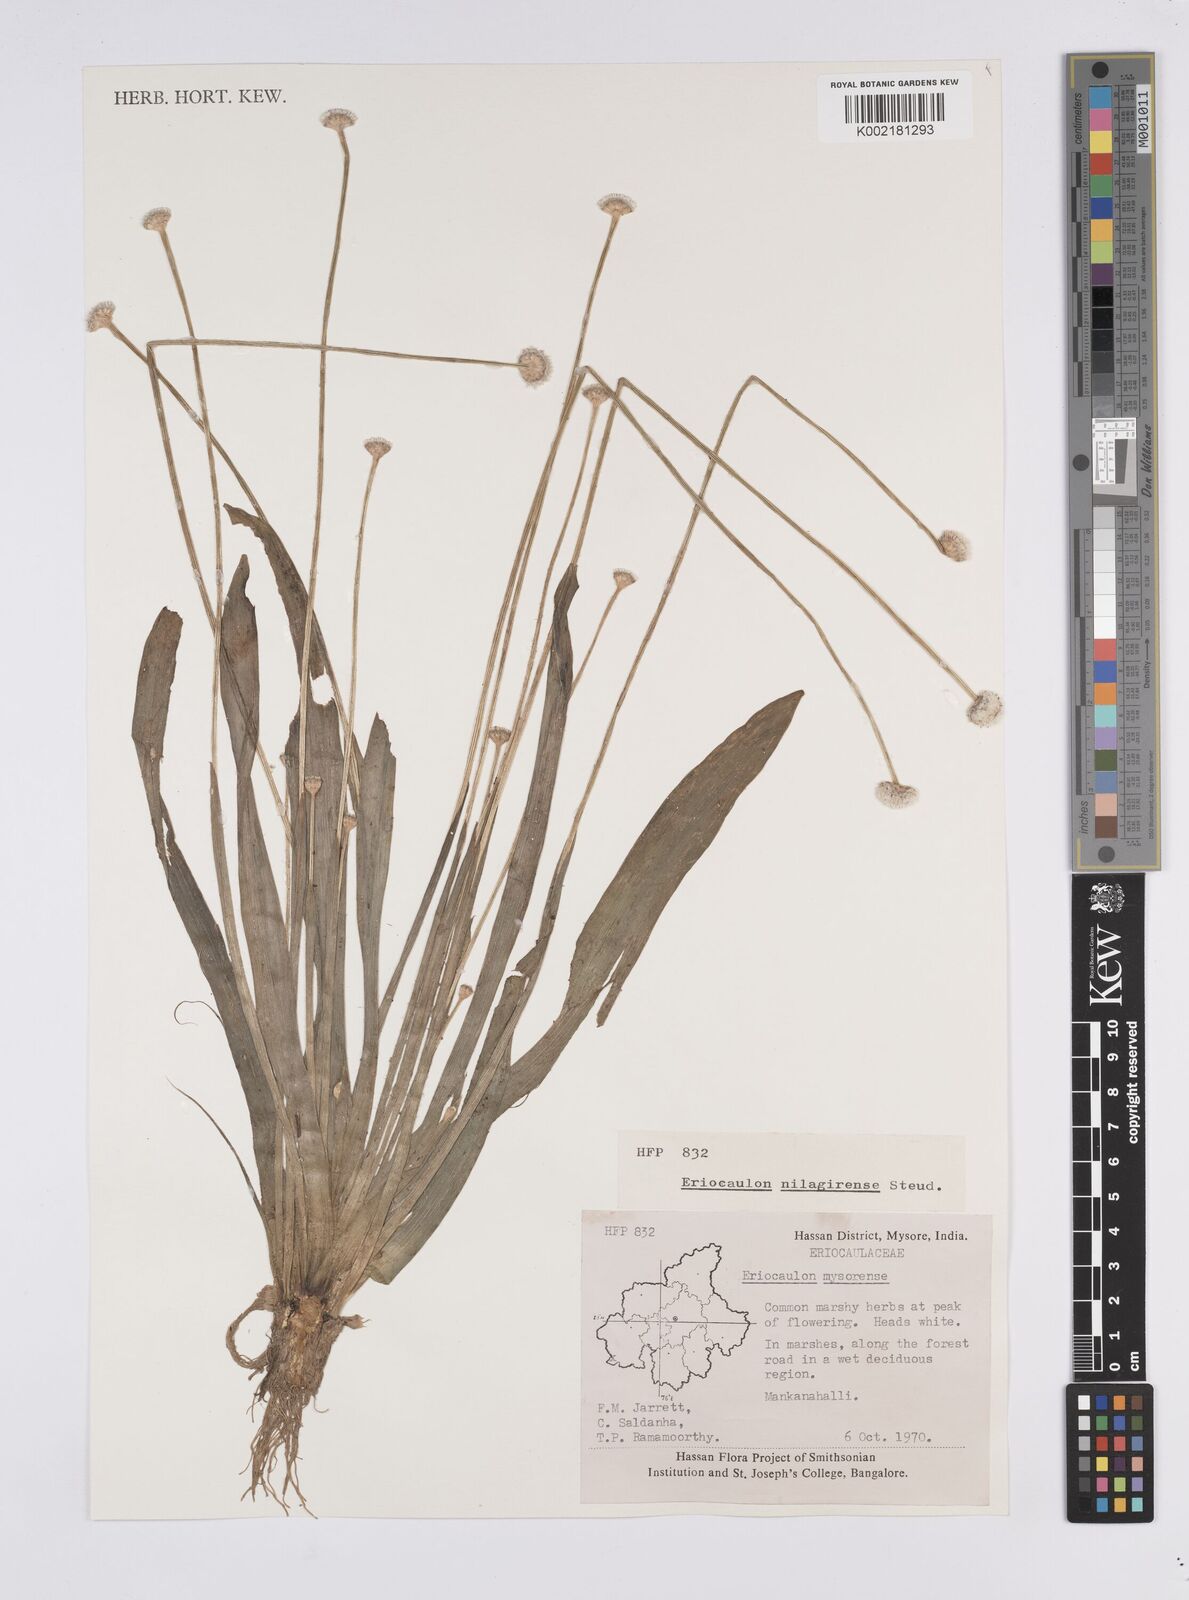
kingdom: Plantae
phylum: Tracheophyta
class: Liliopsida
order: Poales
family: Eriocaulaceae
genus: Eriocaulon
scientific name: Eriocaulon robustobrownianum
